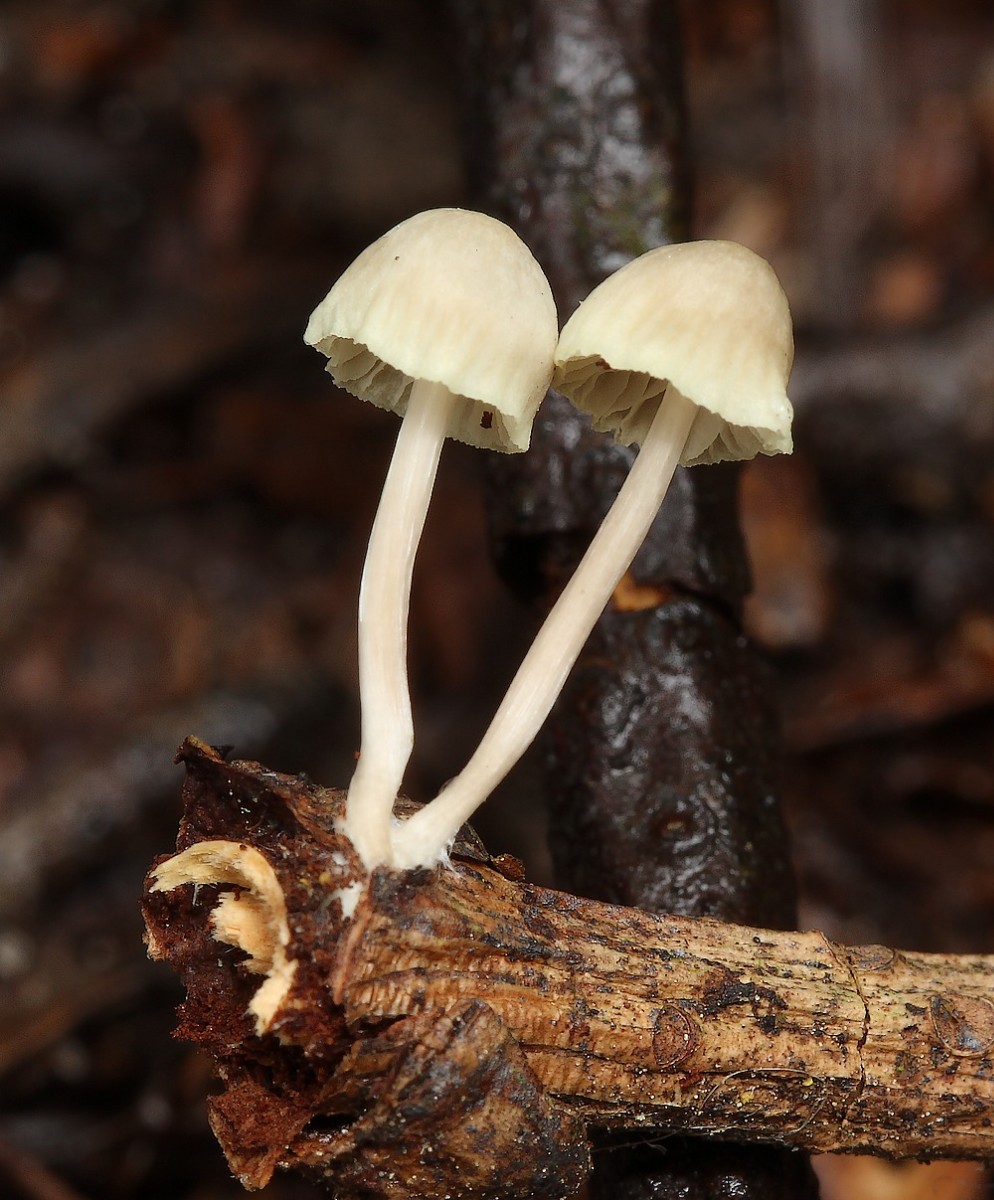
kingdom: Fungi
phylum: Basidiomycota
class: Agaricomycetes
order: Agaricales
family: Mycenaceae
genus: Mycena
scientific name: Mycena
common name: huesvamp
